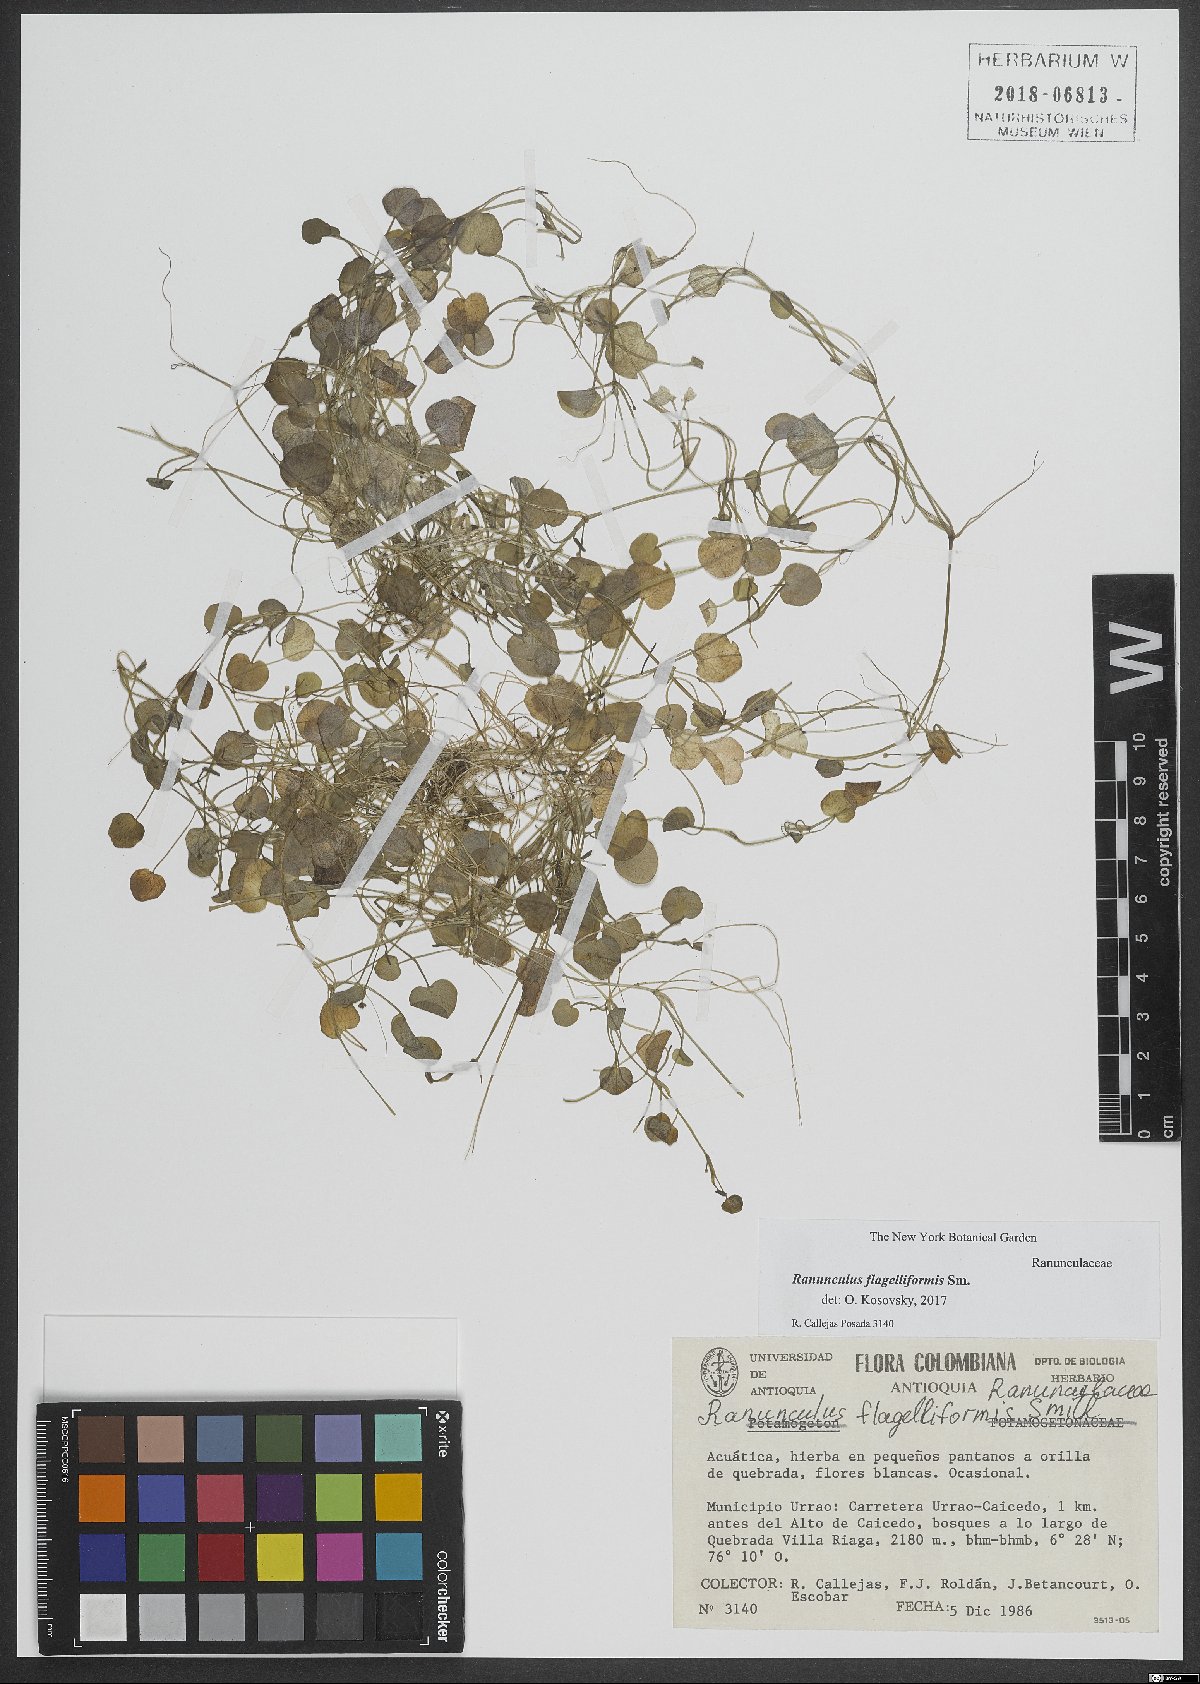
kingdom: Plantae
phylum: Tracheophyta
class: Magnoliopsida
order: Ranunculales
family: Ranunculaceae
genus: Ranunculus
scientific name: Ranunculus flagelliformis
